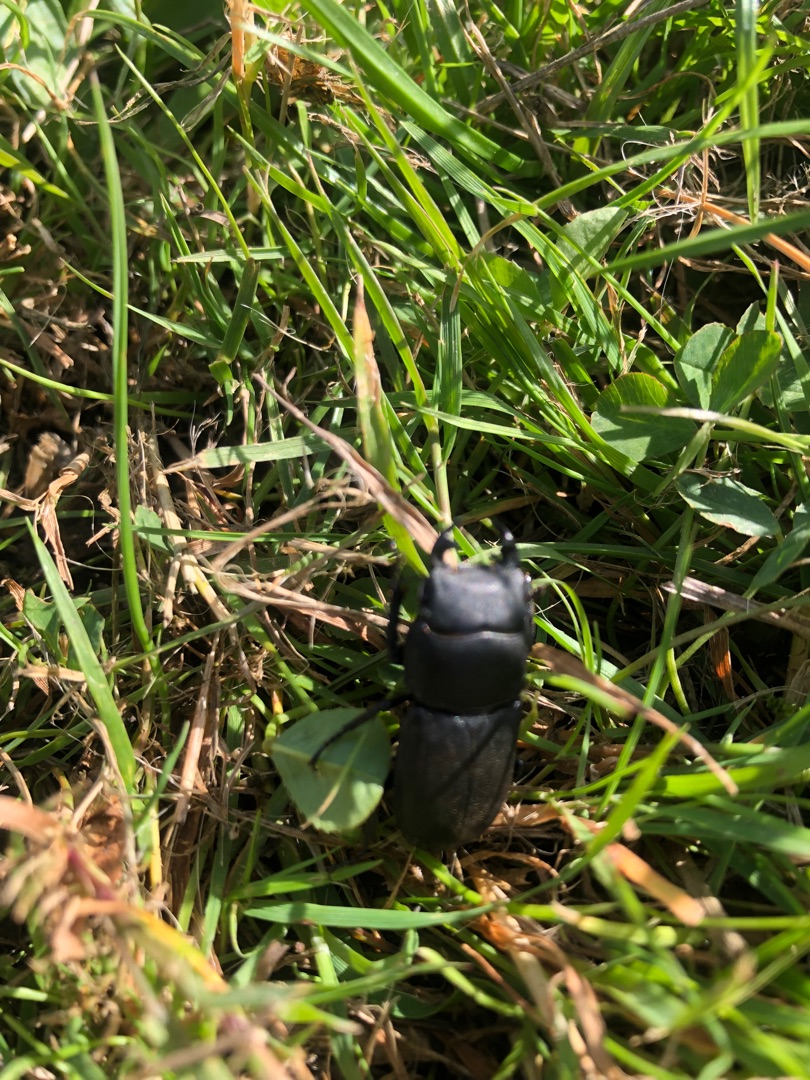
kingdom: Animalia
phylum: Arthropoda
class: Insecta
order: Coleoptera
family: Lucanidae
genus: Dorcus
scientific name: Dorcus parallelipipedus
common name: Bøghjort
